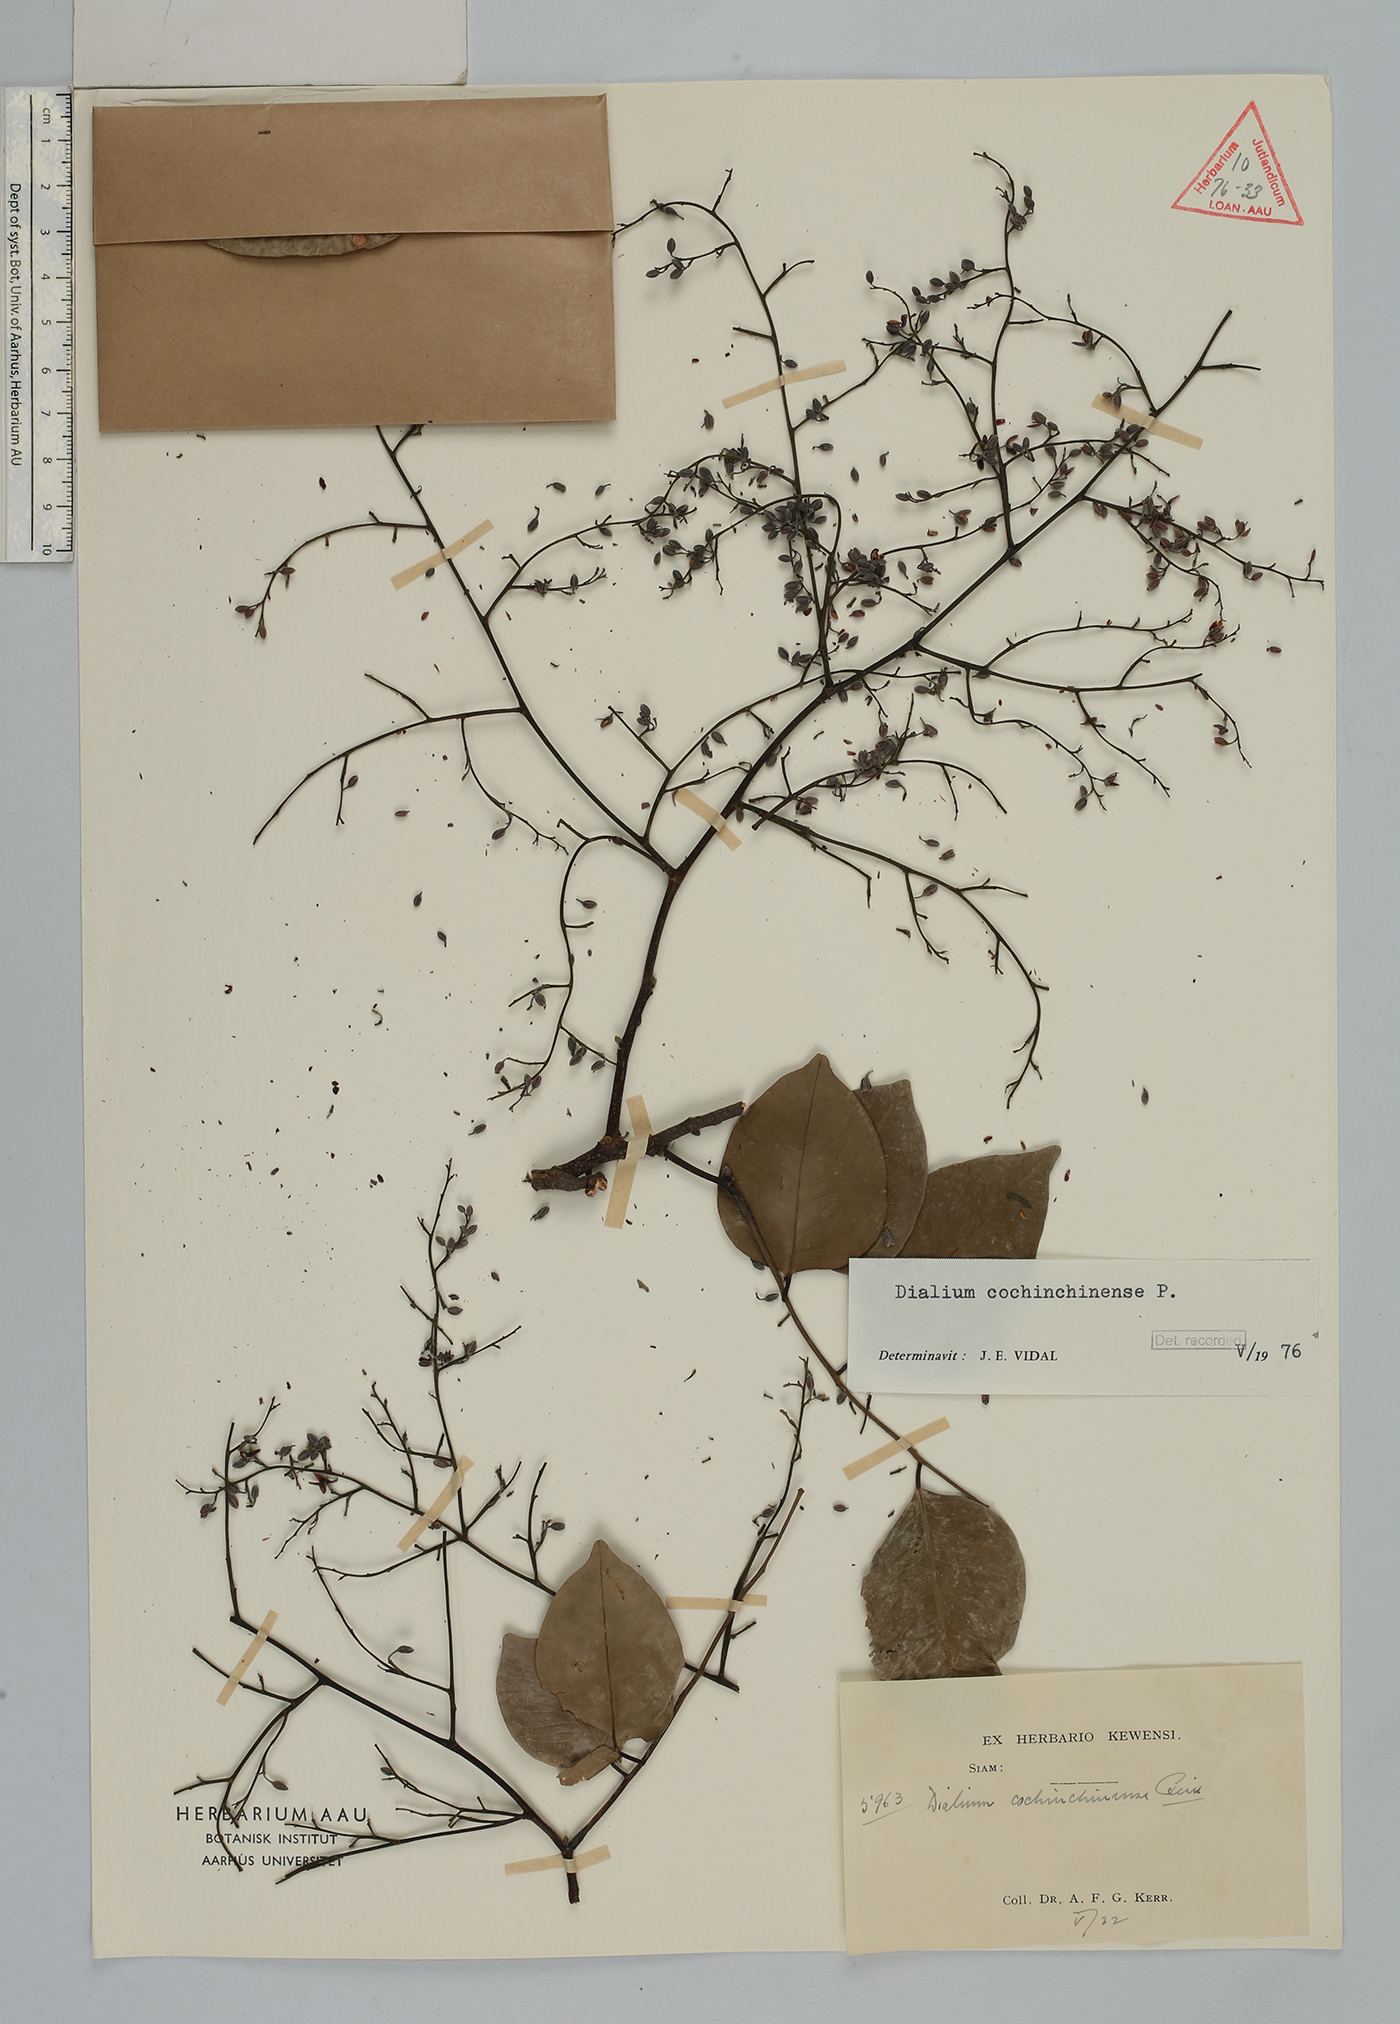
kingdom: Plantae
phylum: Tracheophyta
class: Magnoliopsida
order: Fabales
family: Fabaceae
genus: Dialium
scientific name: Dialium cochinchinense
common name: Velvet tamarind
